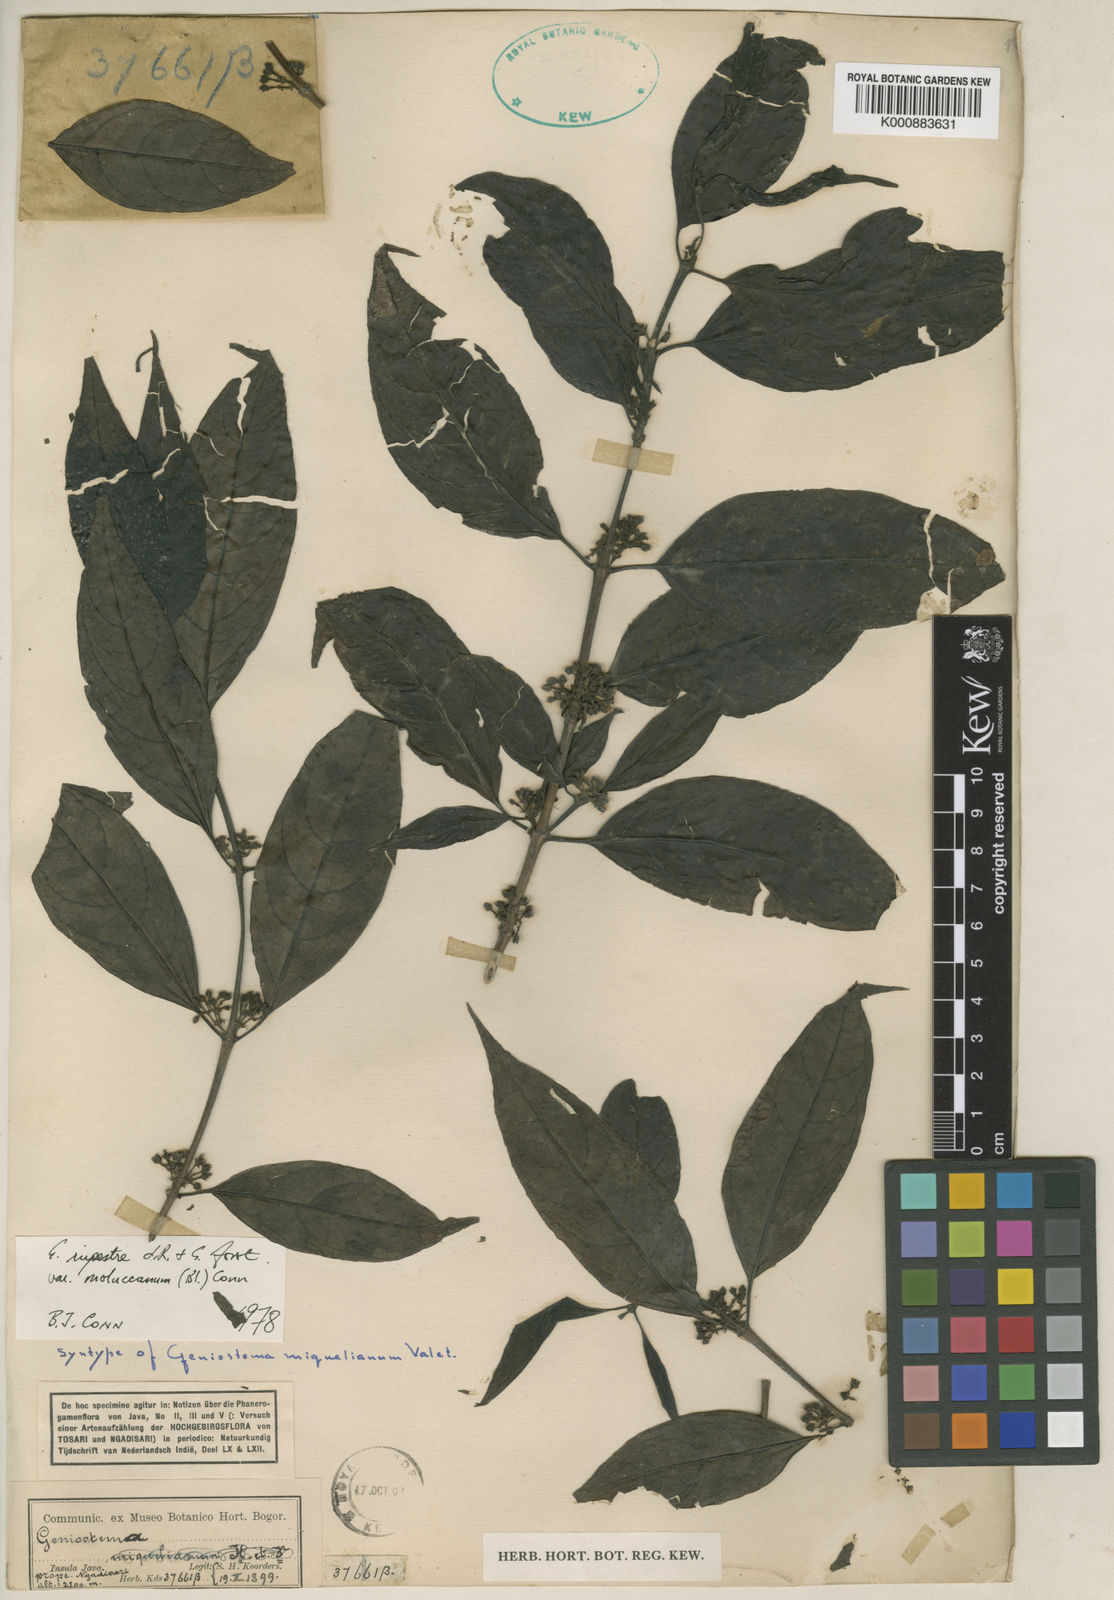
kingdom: Plantae
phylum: Tracheophyta
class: Magnoliopsida
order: Gentianales
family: Loganiaceae
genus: Geniostoma
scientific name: Geniostoma rupestre
